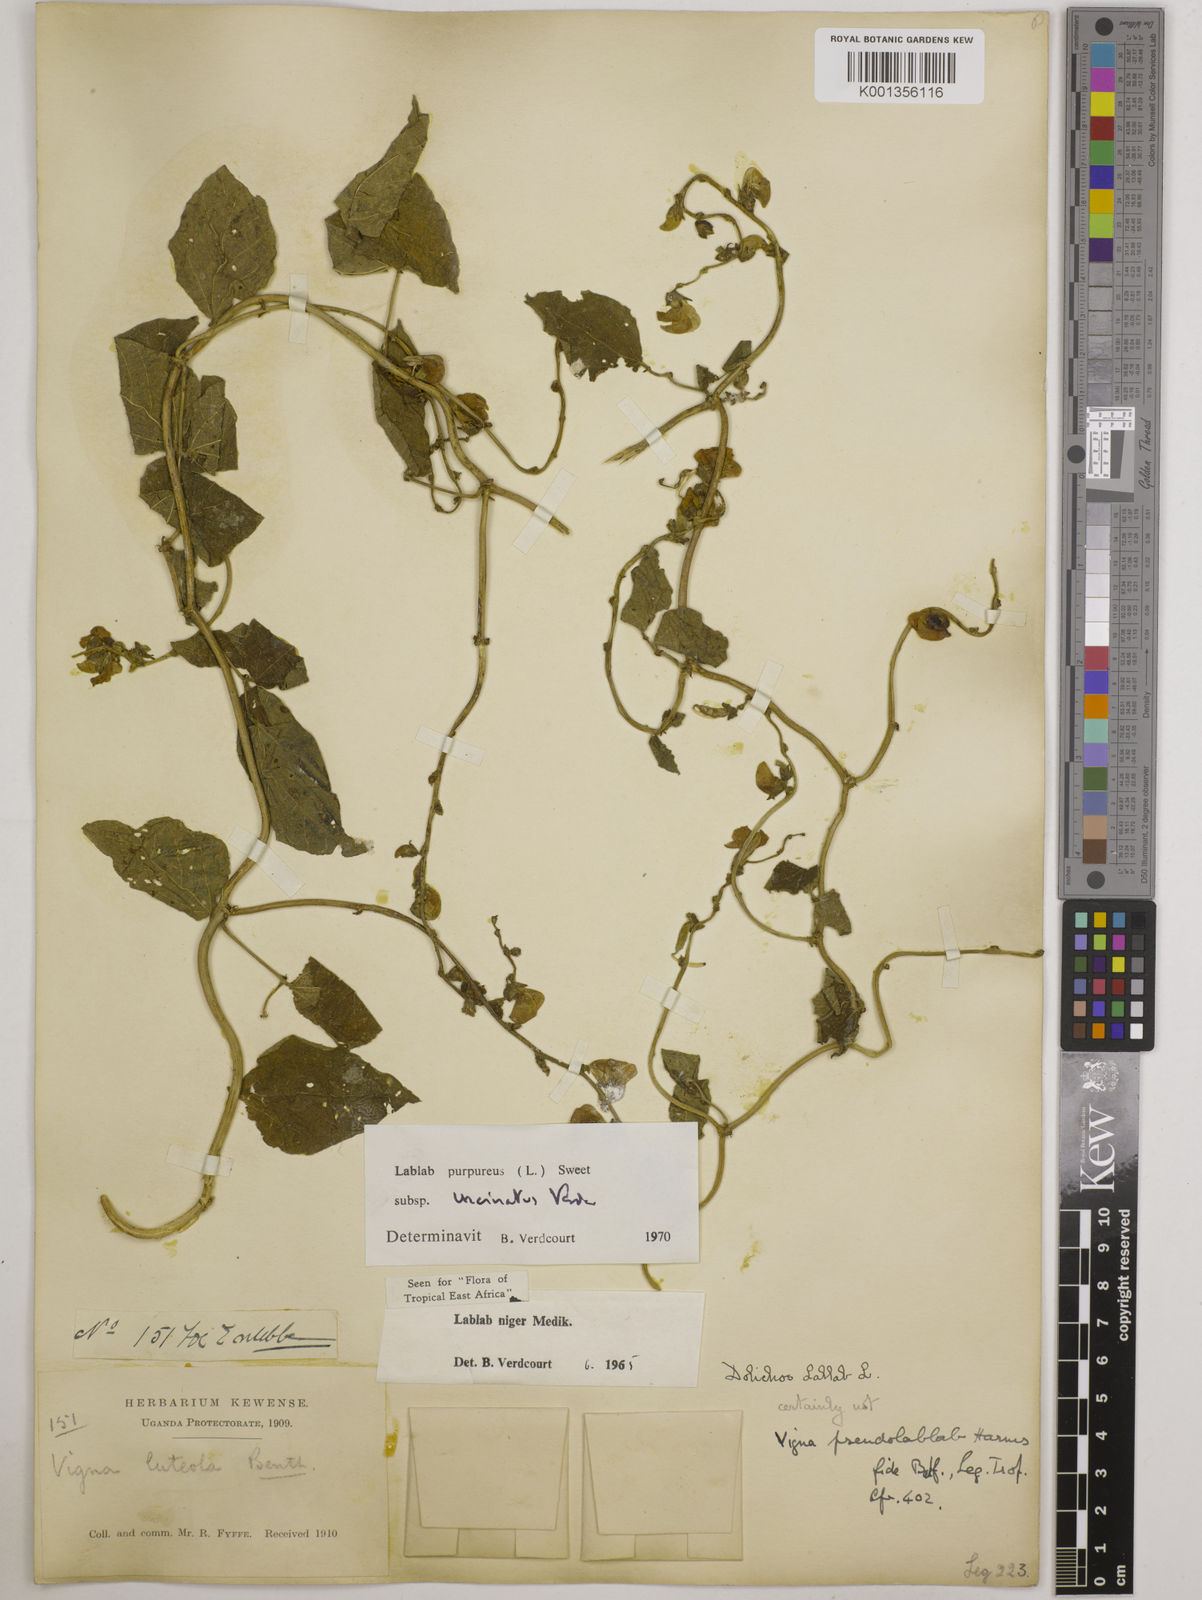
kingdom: Plantae
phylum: Tracheophyta
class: Magnoliopsida
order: Fabales
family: Fabaceae
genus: Lablab
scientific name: Lablab purpureus
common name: Lablab-bean
